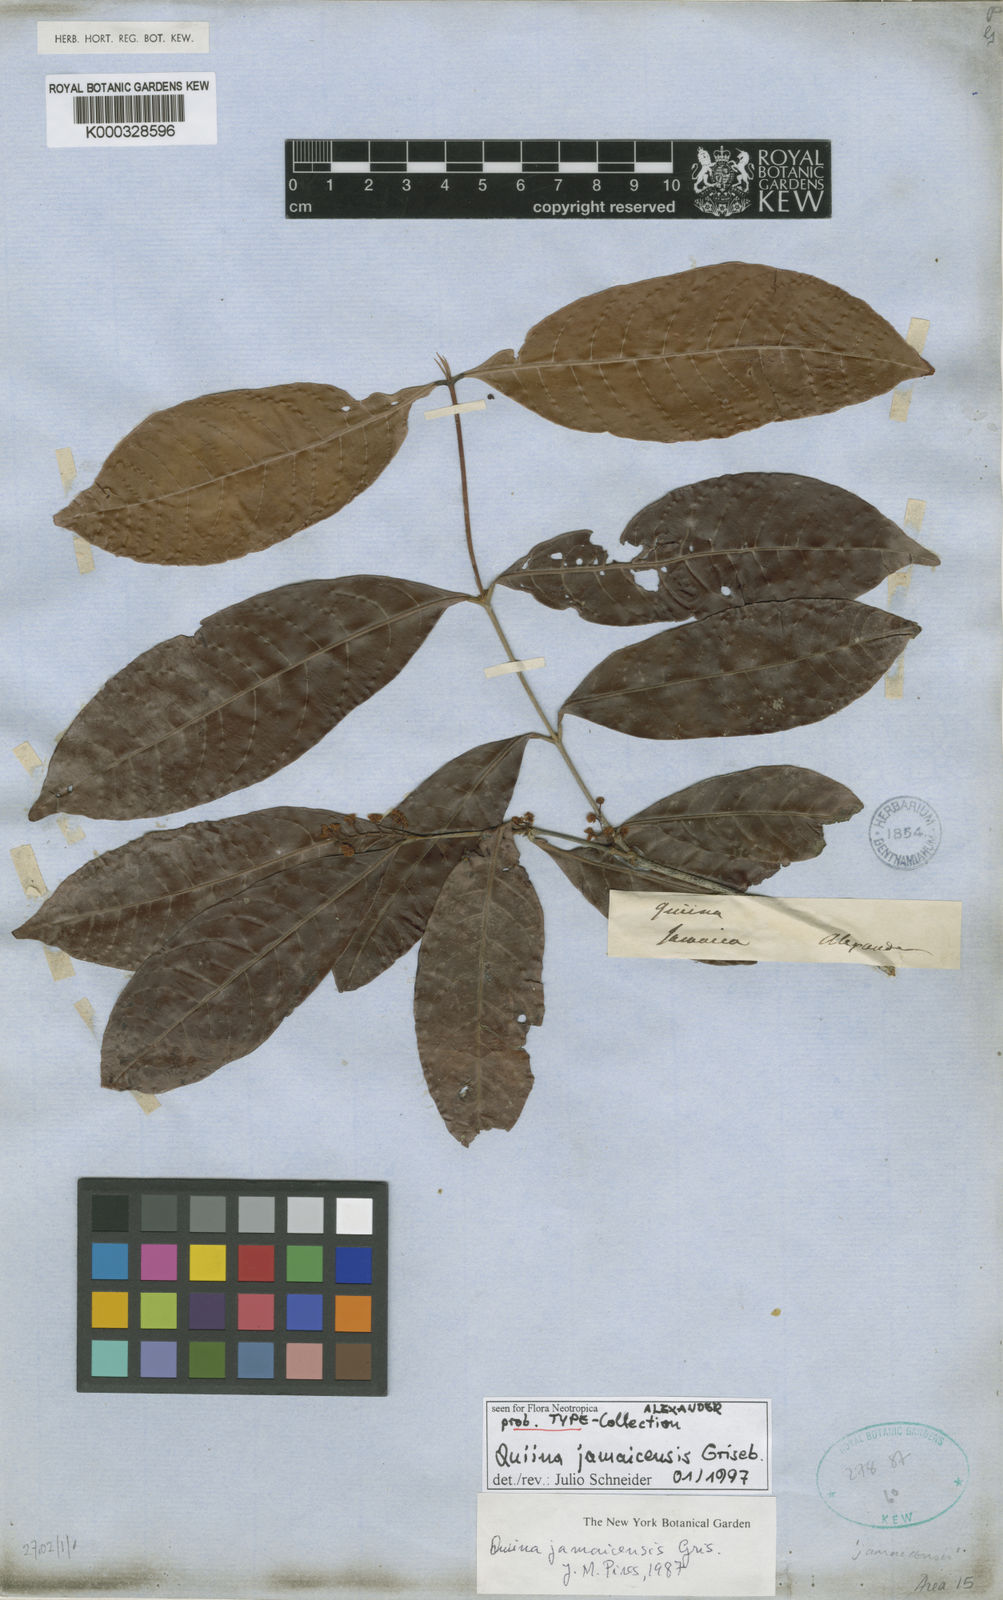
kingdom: Plantae
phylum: Tracheophyta
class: Magnoliopsida
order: Malpighiales
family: Quiinaceae
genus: Quiina
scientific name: Quiina jamaicensis
